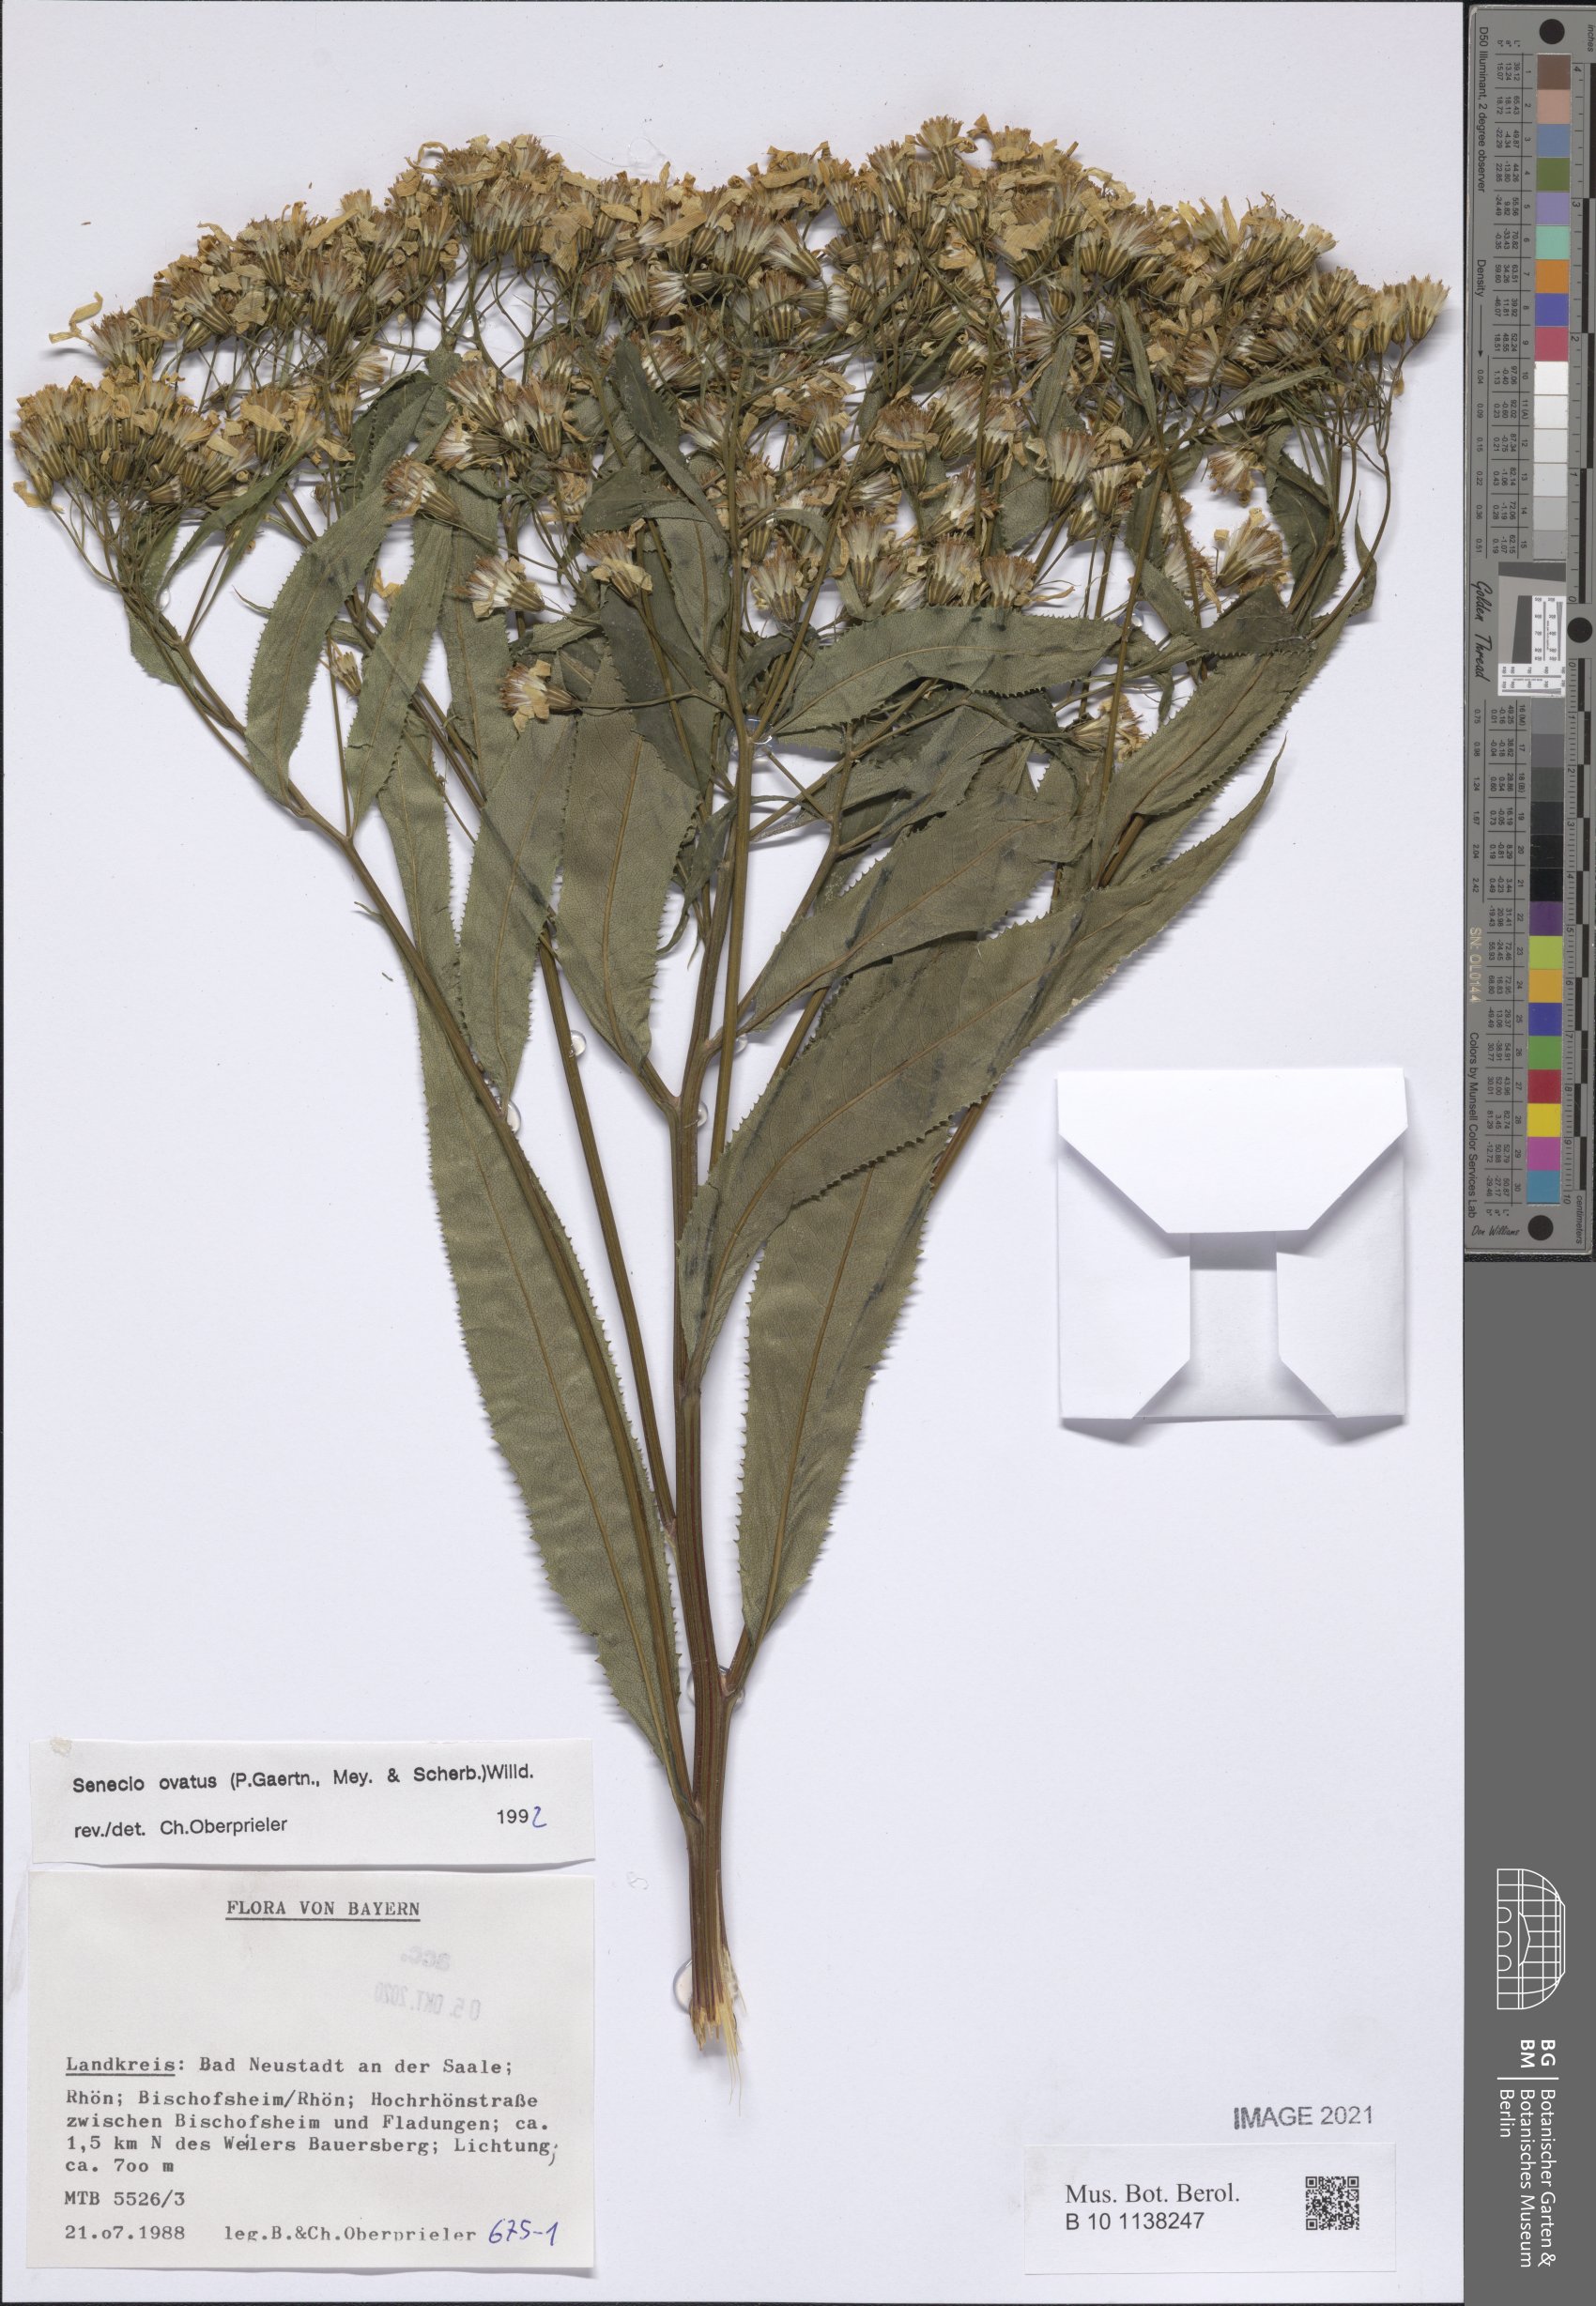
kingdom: Plantae
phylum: Tracheophyta
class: Magnoliopsida
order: Asterales
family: Asteraceae
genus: Senecio
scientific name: Senecio ovatus
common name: Wood ragwort
